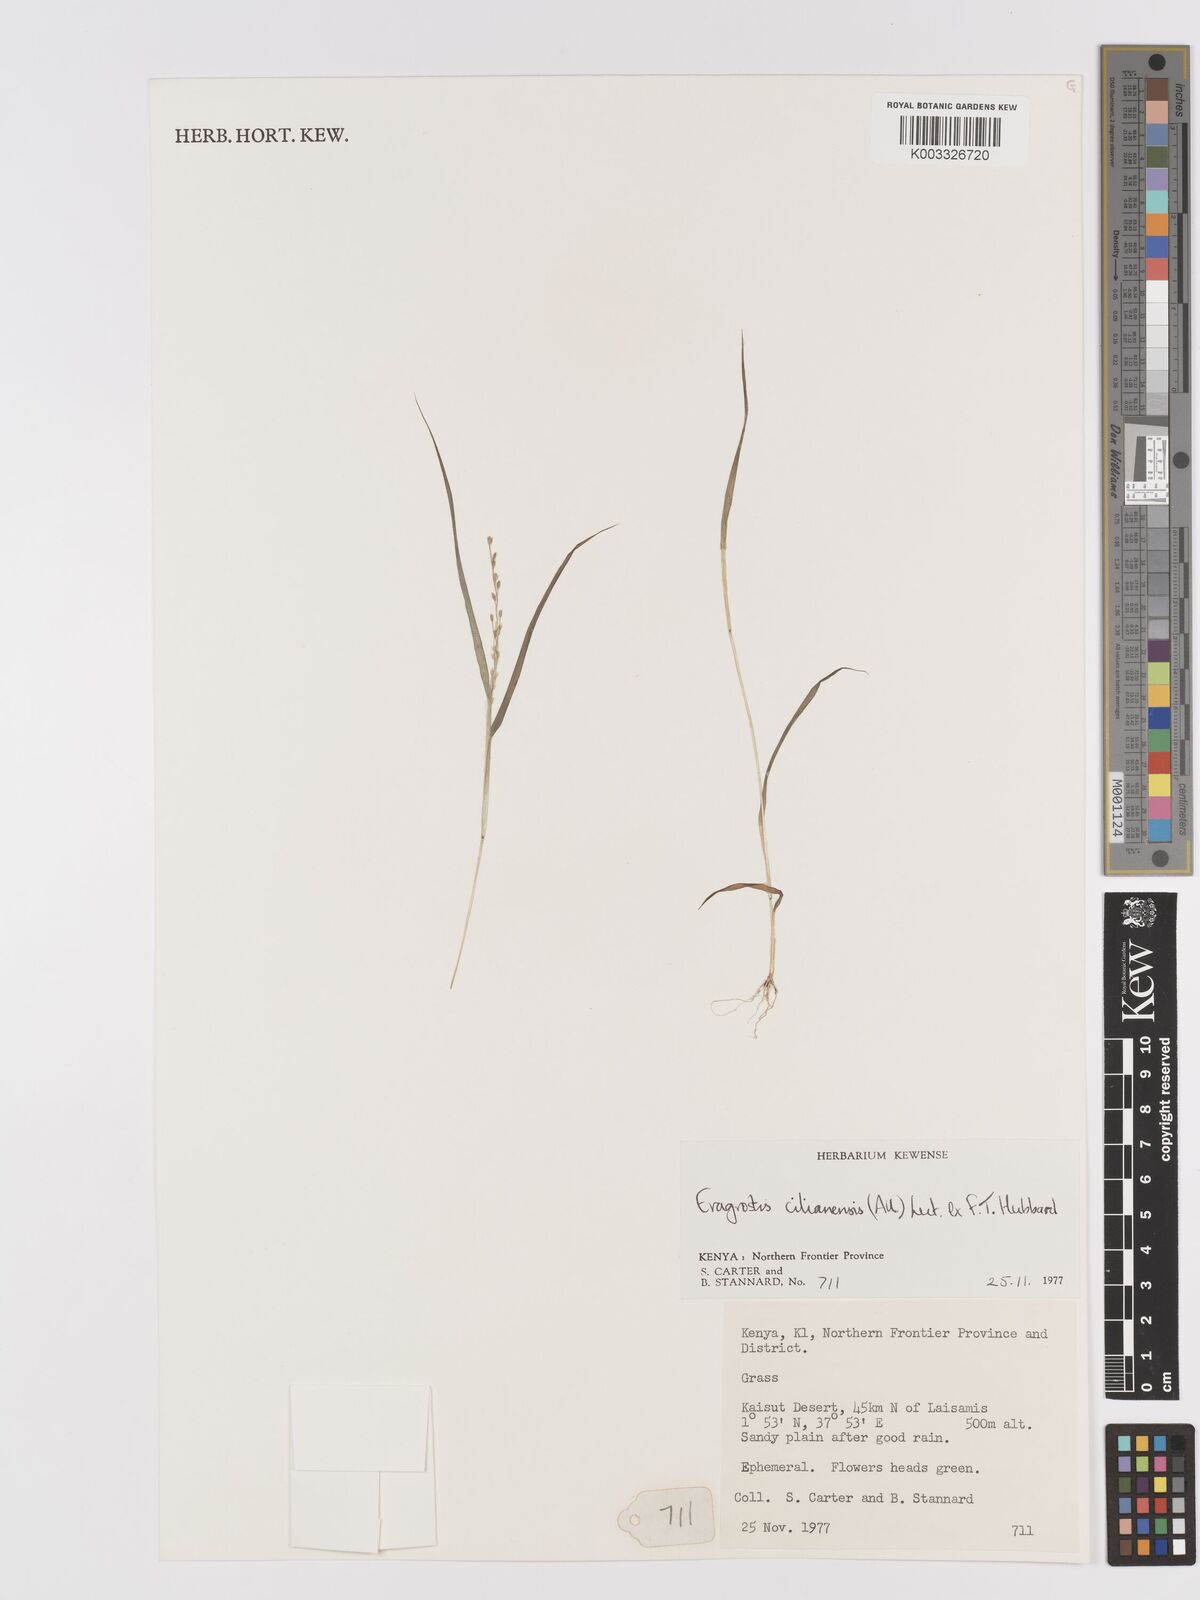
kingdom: Plantae
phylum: Tracheophyta
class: Liliopsida
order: Poales
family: Poaceae
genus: Eragrostis
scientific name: Eragrostis cilianensis
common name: Stinkgrass
